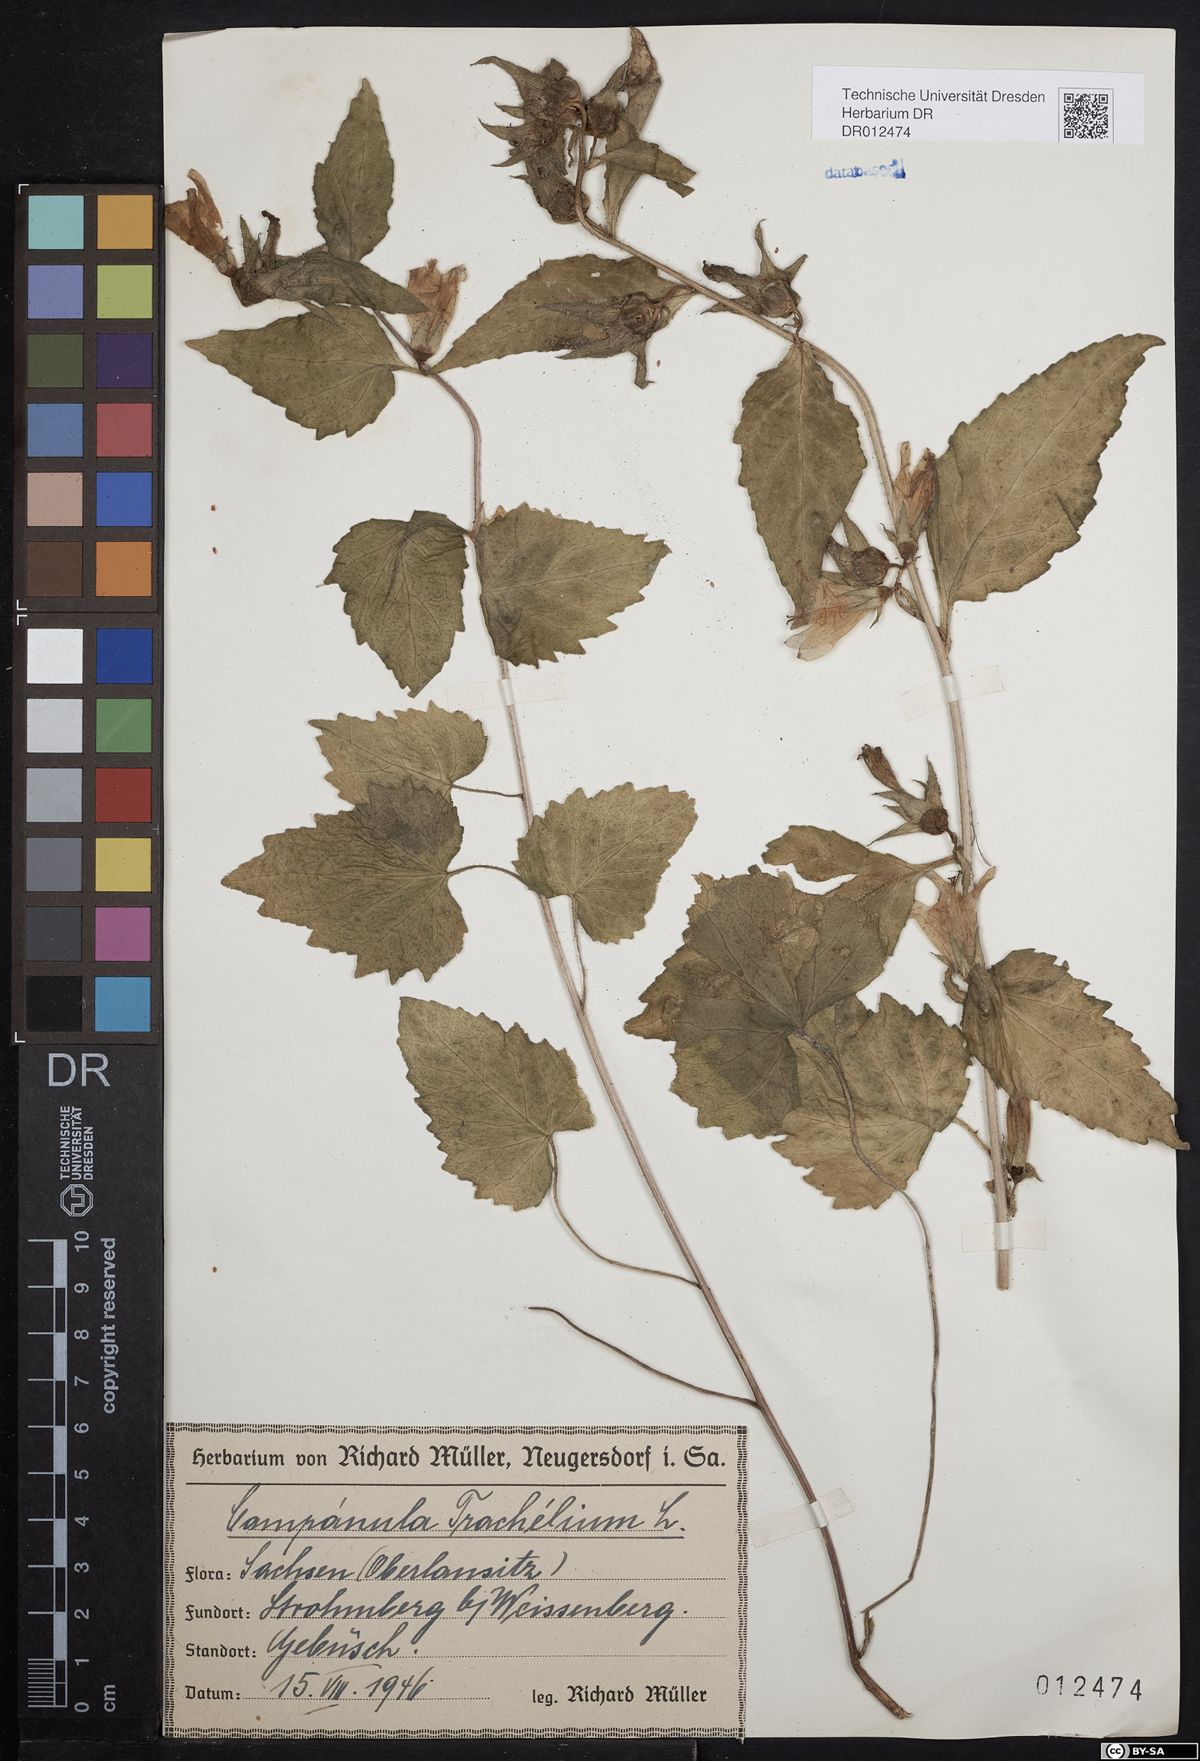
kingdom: Plantae
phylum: Tracheophyta
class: Magnoliopsida
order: Asterales
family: Campanulaceae
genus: Campanula
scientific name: Campanula trachelium
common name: Nettle-leaved bellflower
